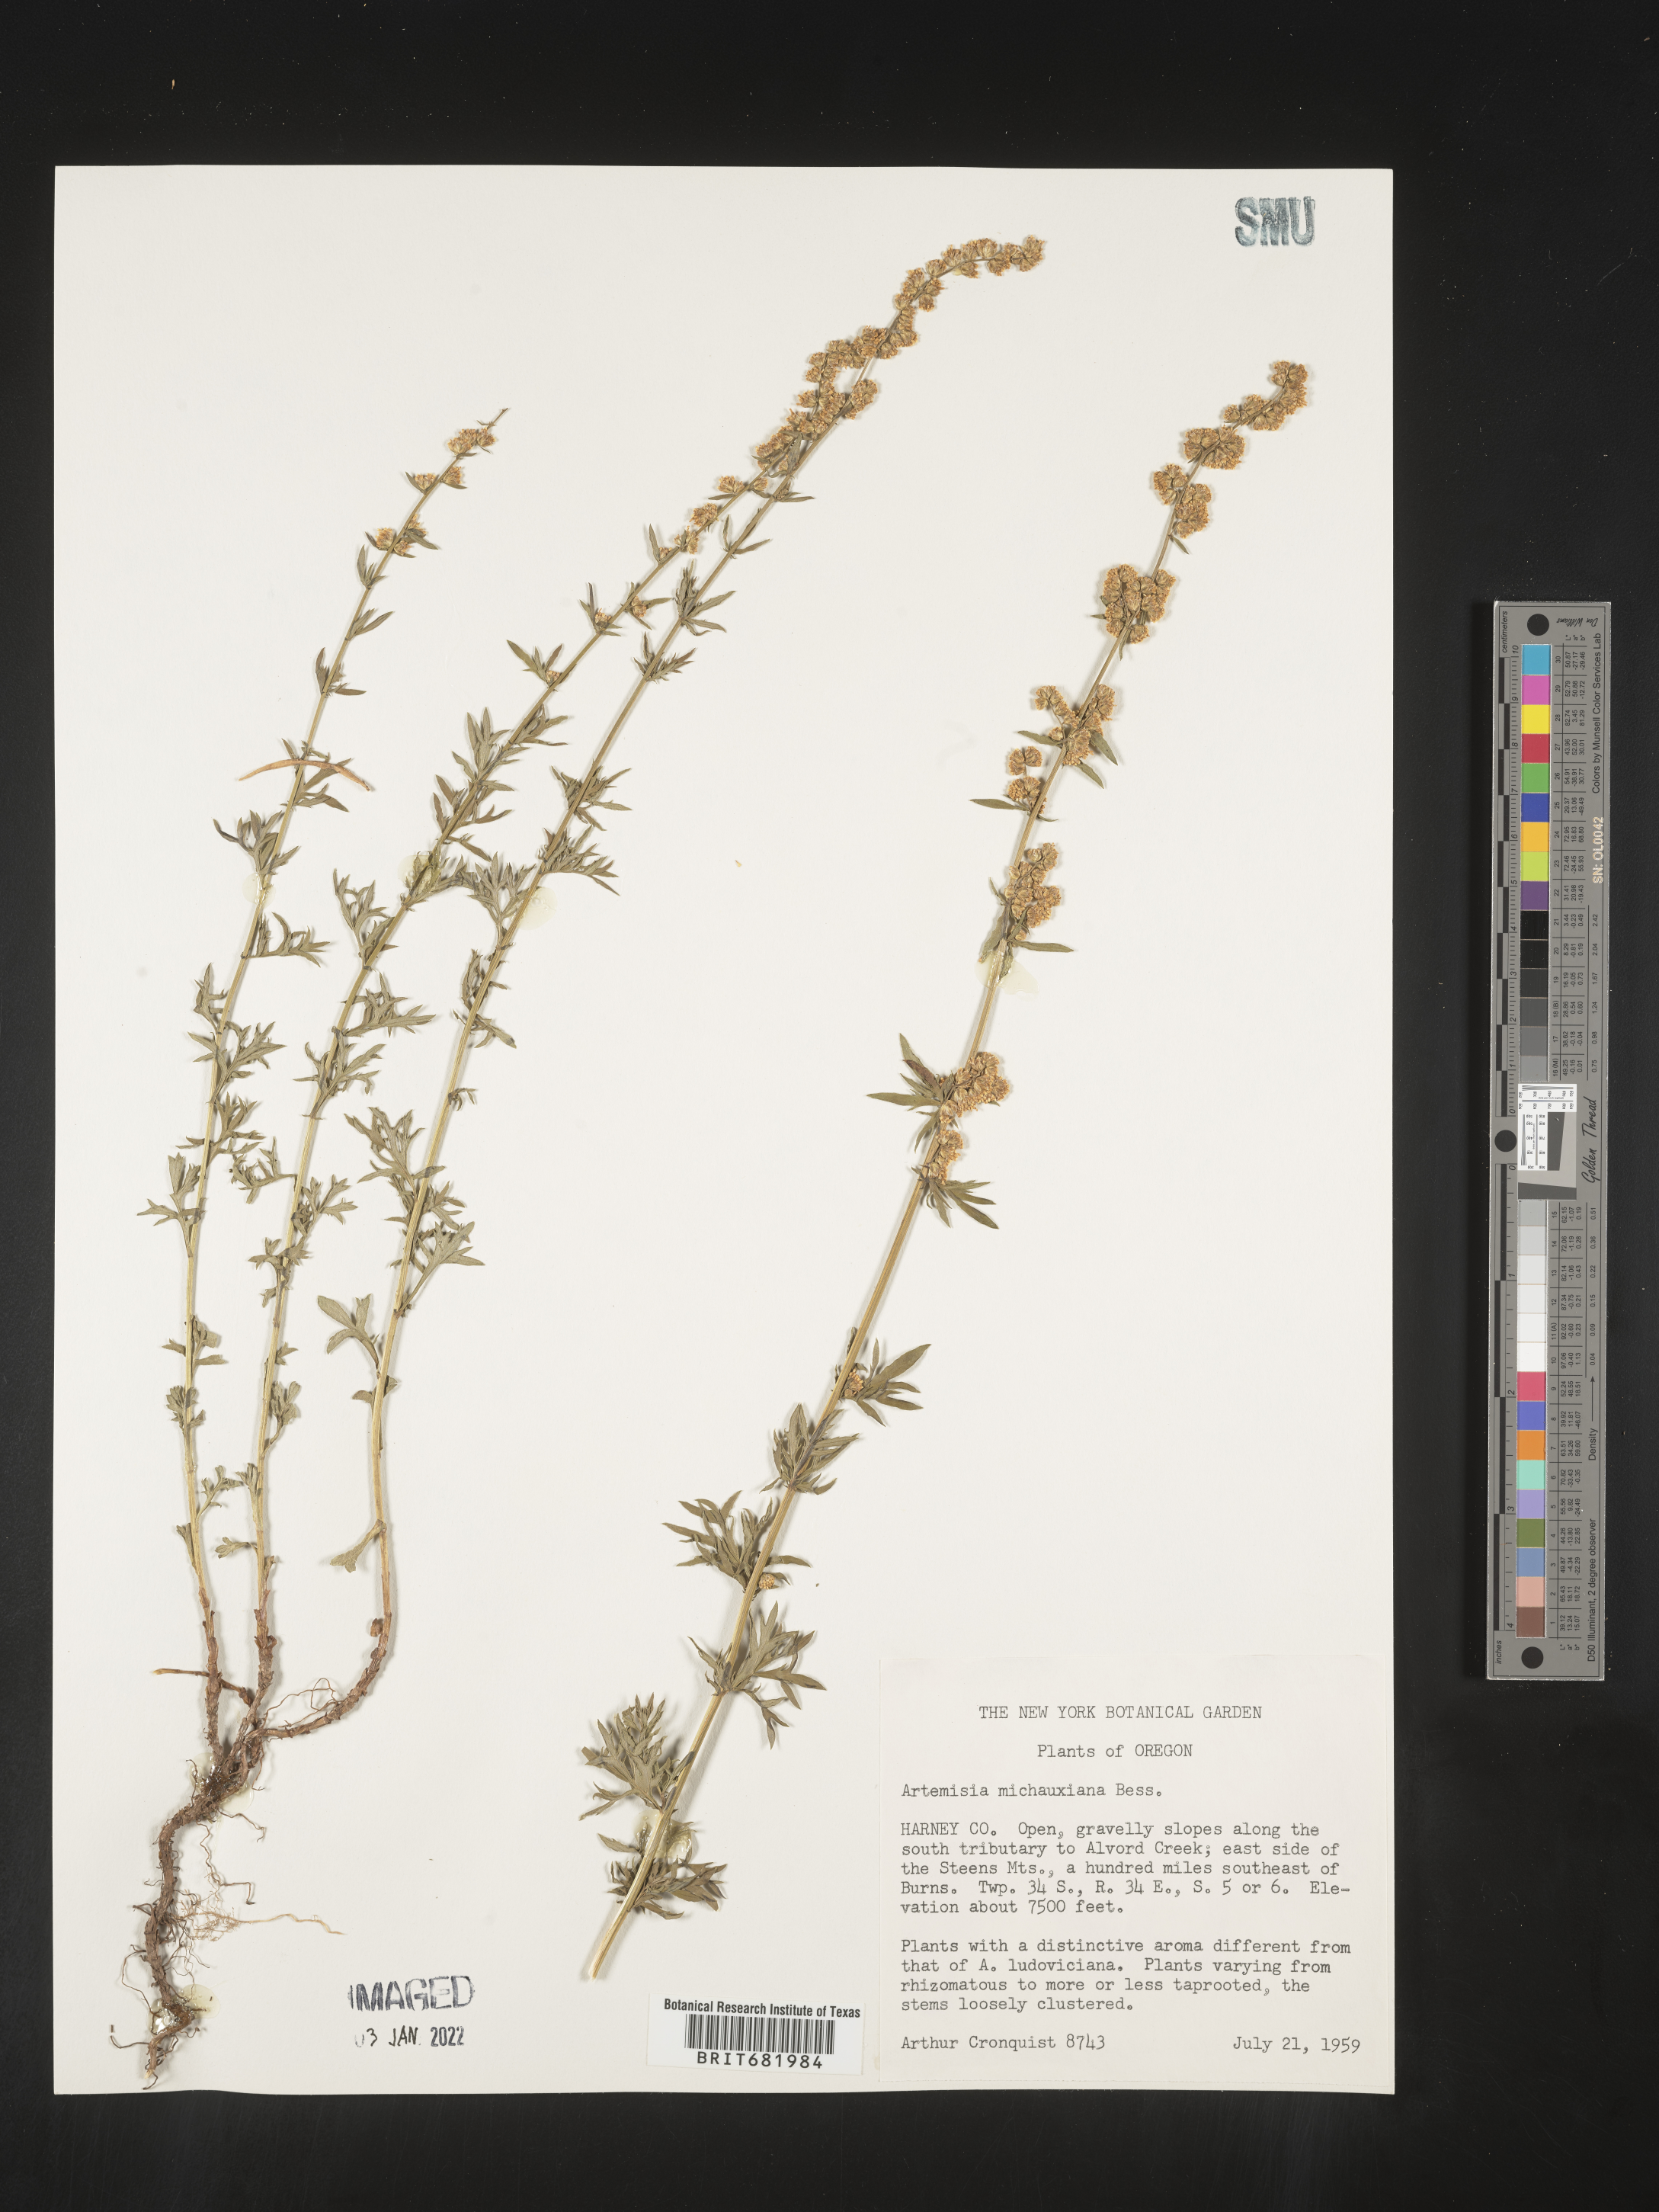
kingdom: Plantae
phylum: Tracheophyta
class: Magnoliopsida
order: Asterales
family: Asteraceae
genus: Artemisia
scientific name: Artemisia michauxiana
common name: Lemon sagewort
